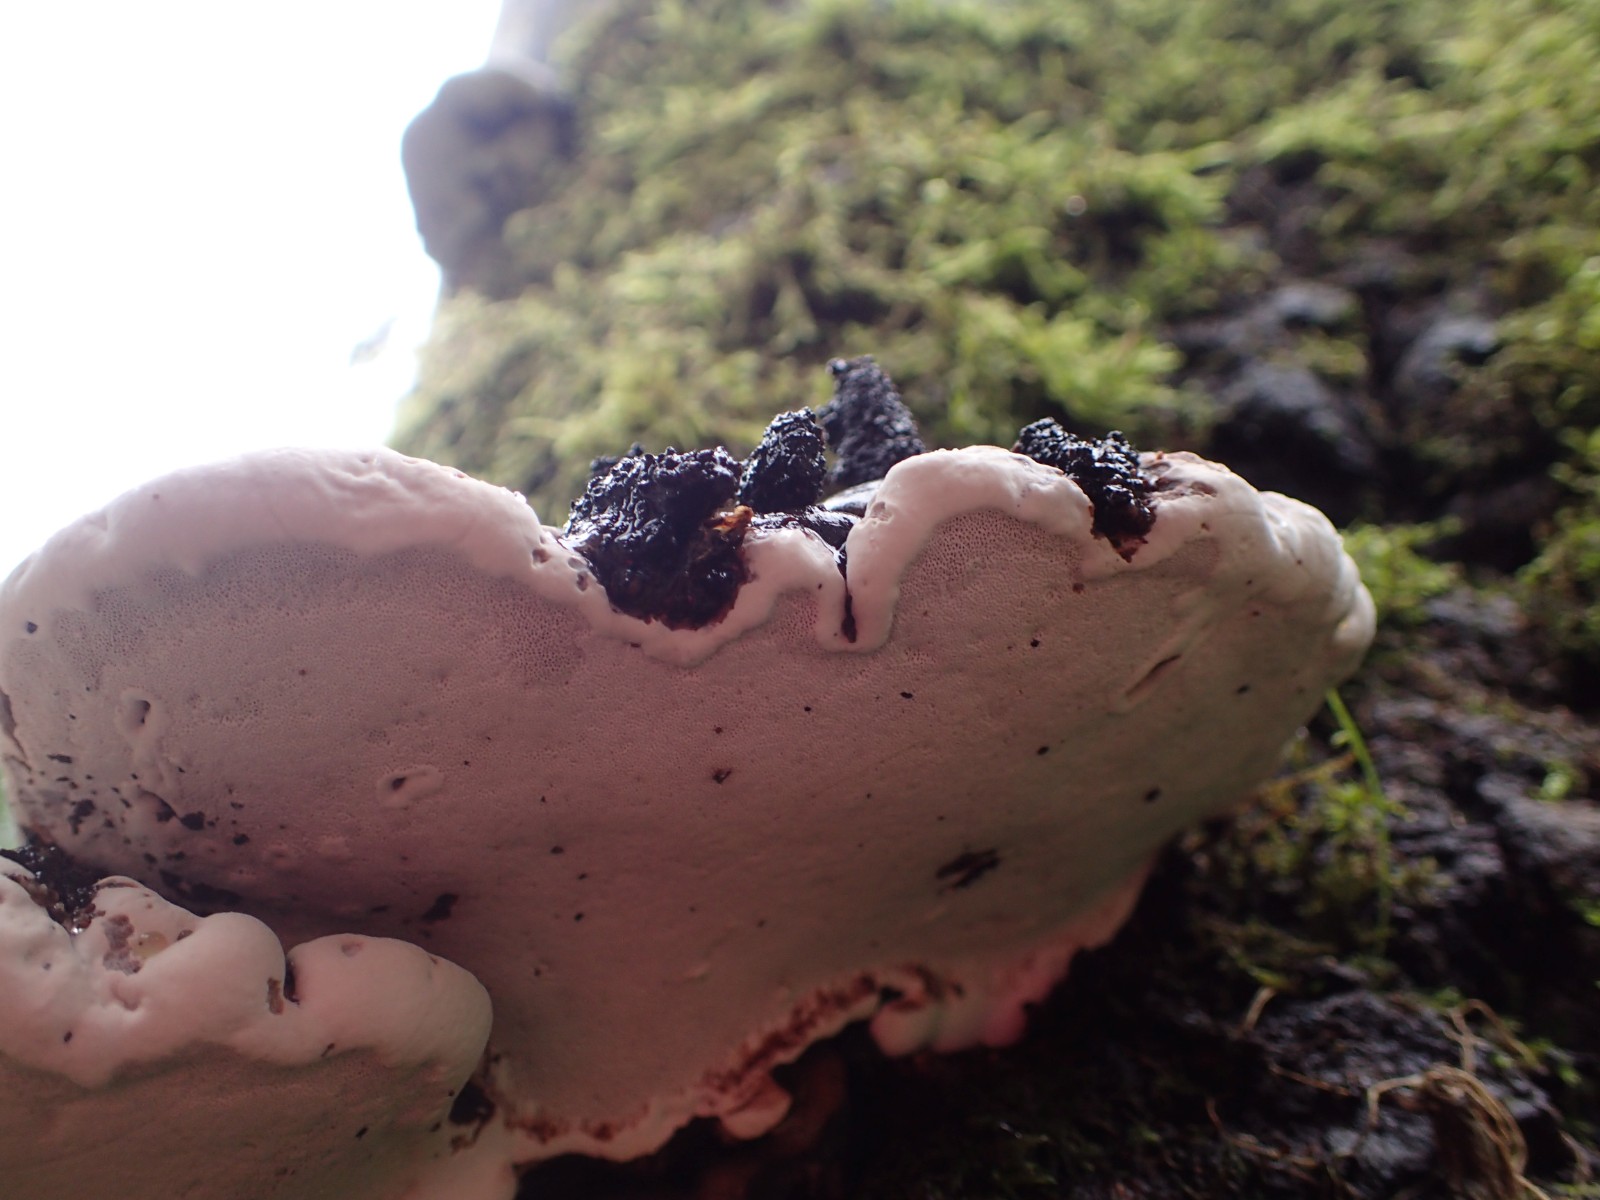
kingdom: Fungi
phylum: Basidiomycota
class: Agaricomycetes
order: Russulales
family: Bondarzewiaceae
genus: Heterobasidion
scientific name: Heterobasidion annosum
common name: almindelig rodfordærver
